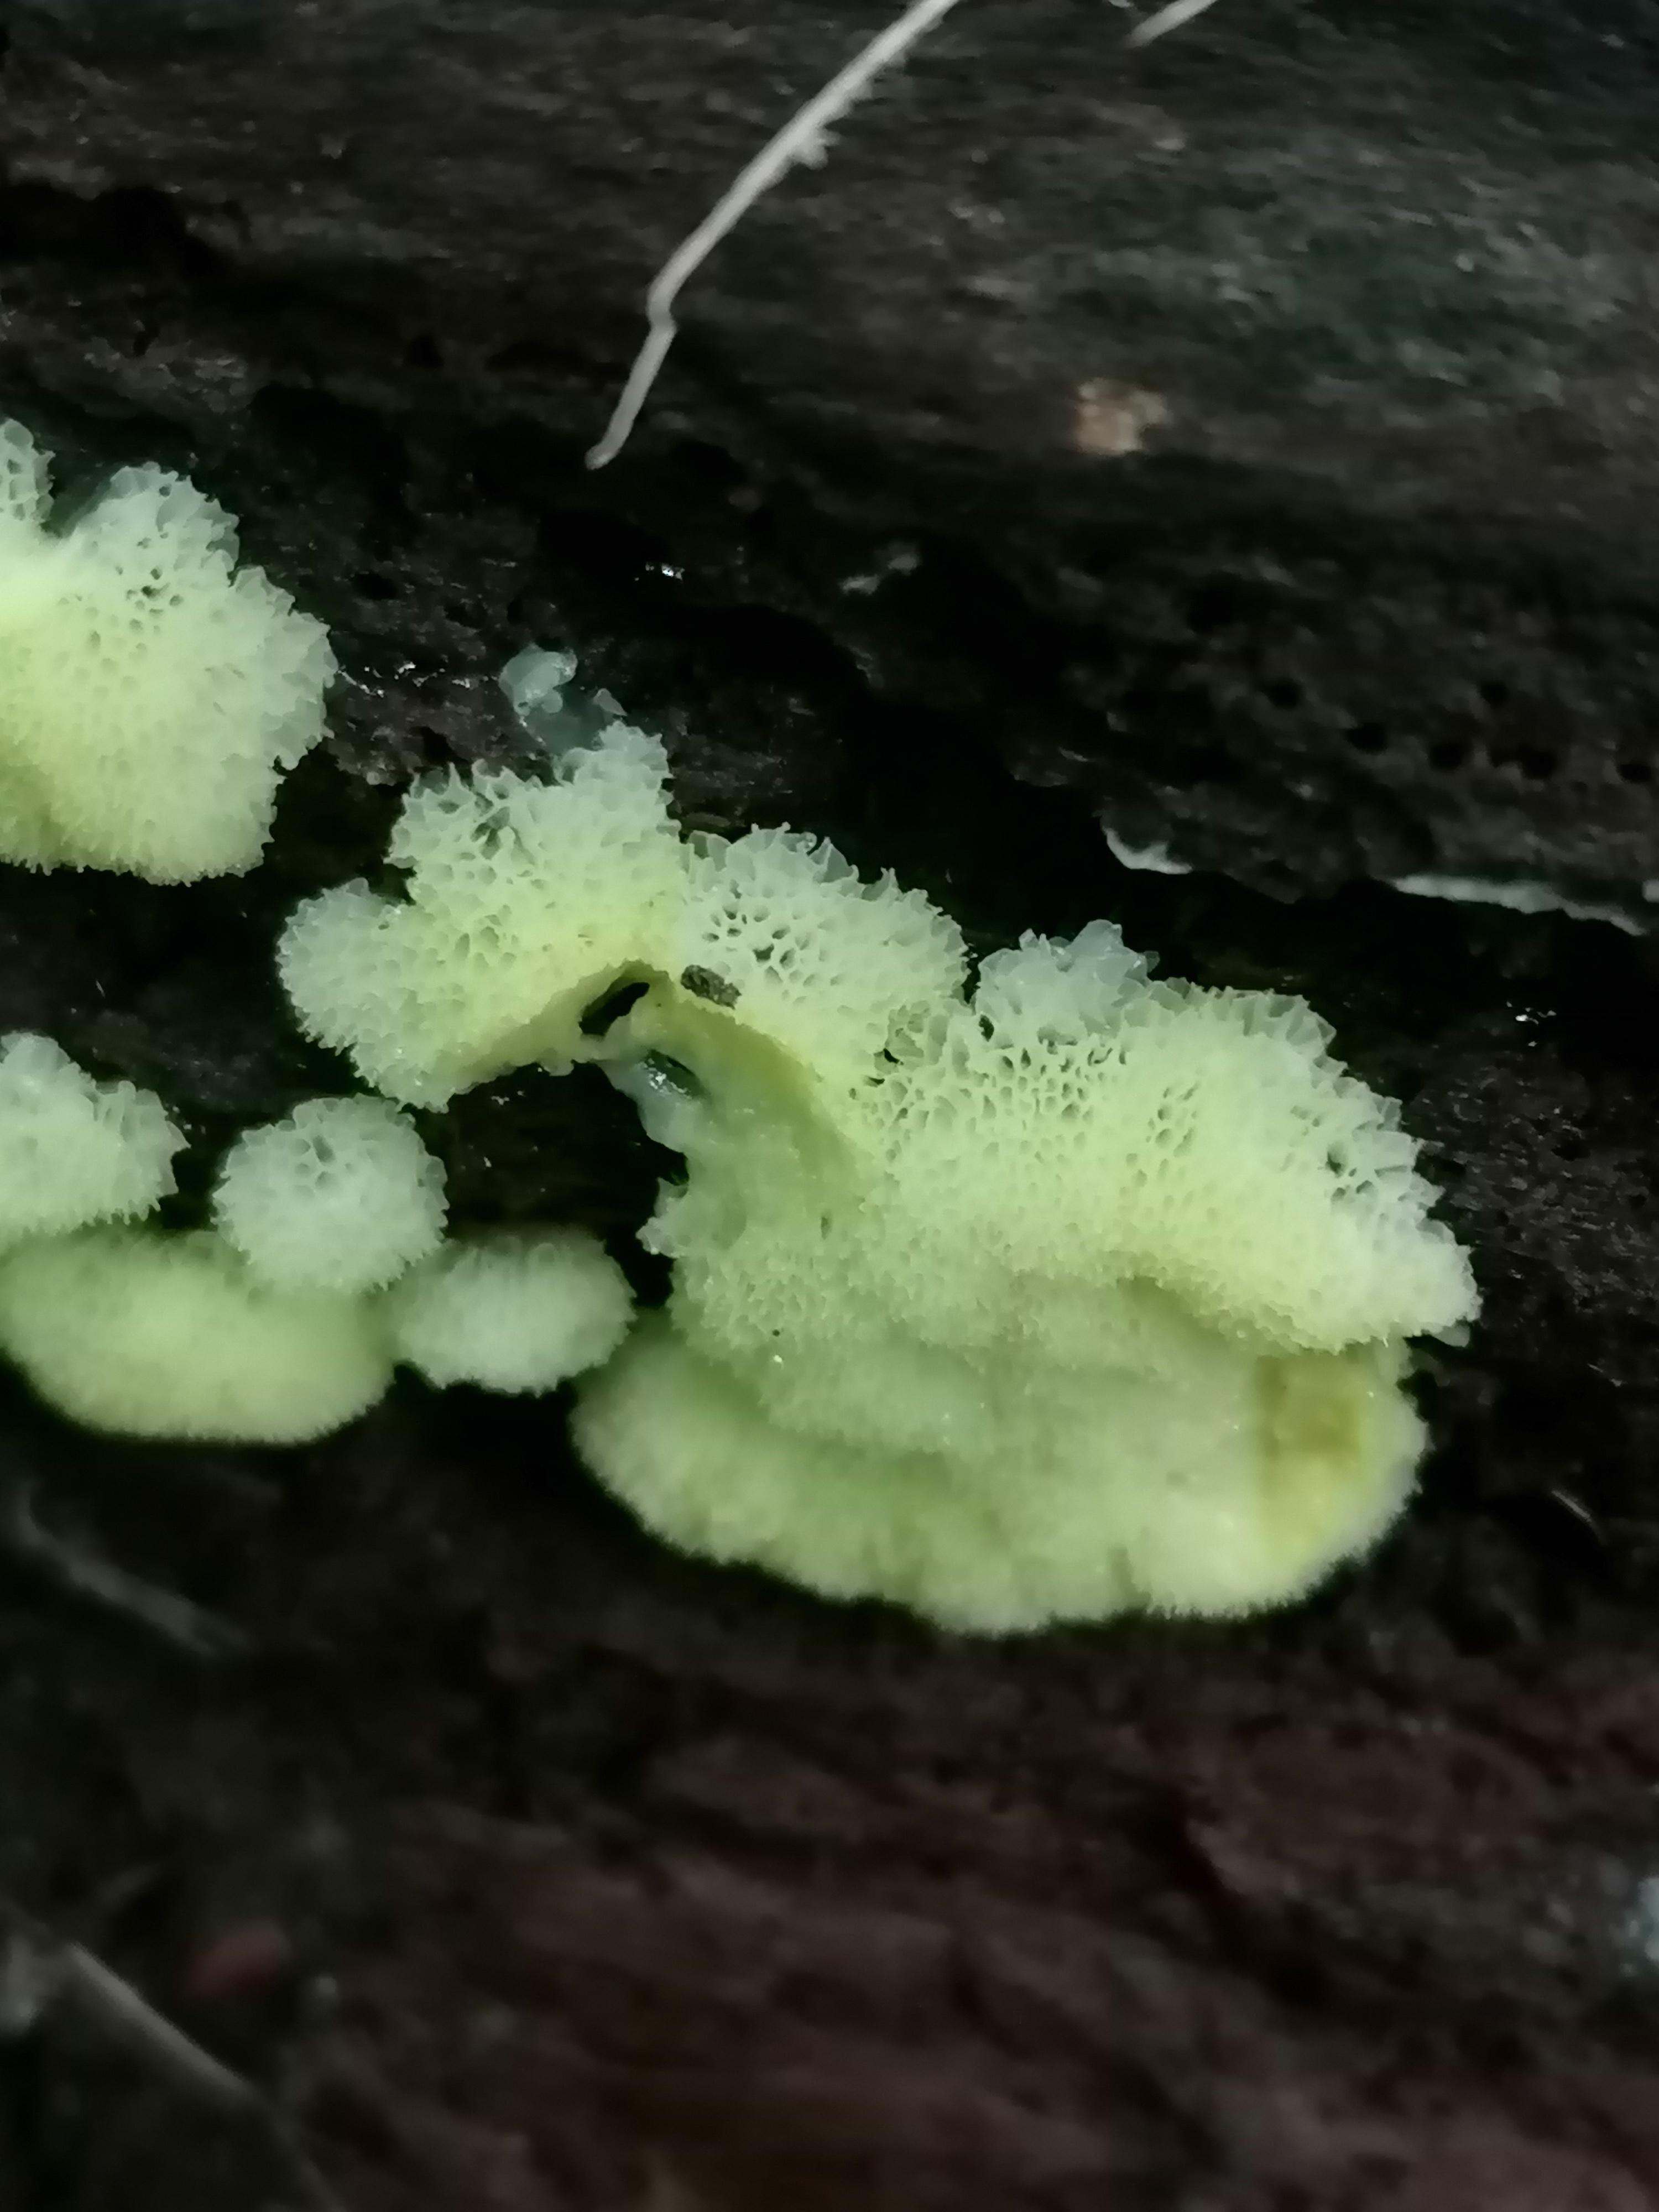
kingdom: Protozoa
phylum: Mycetozoa
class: Protosteliomycetes
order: Ceratiomyxales
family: Ceratiomyxaceae
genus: Ceratiomyxa
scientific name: Ceratiomyxa fruticulosa
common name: Honeycomb coral slime mold
